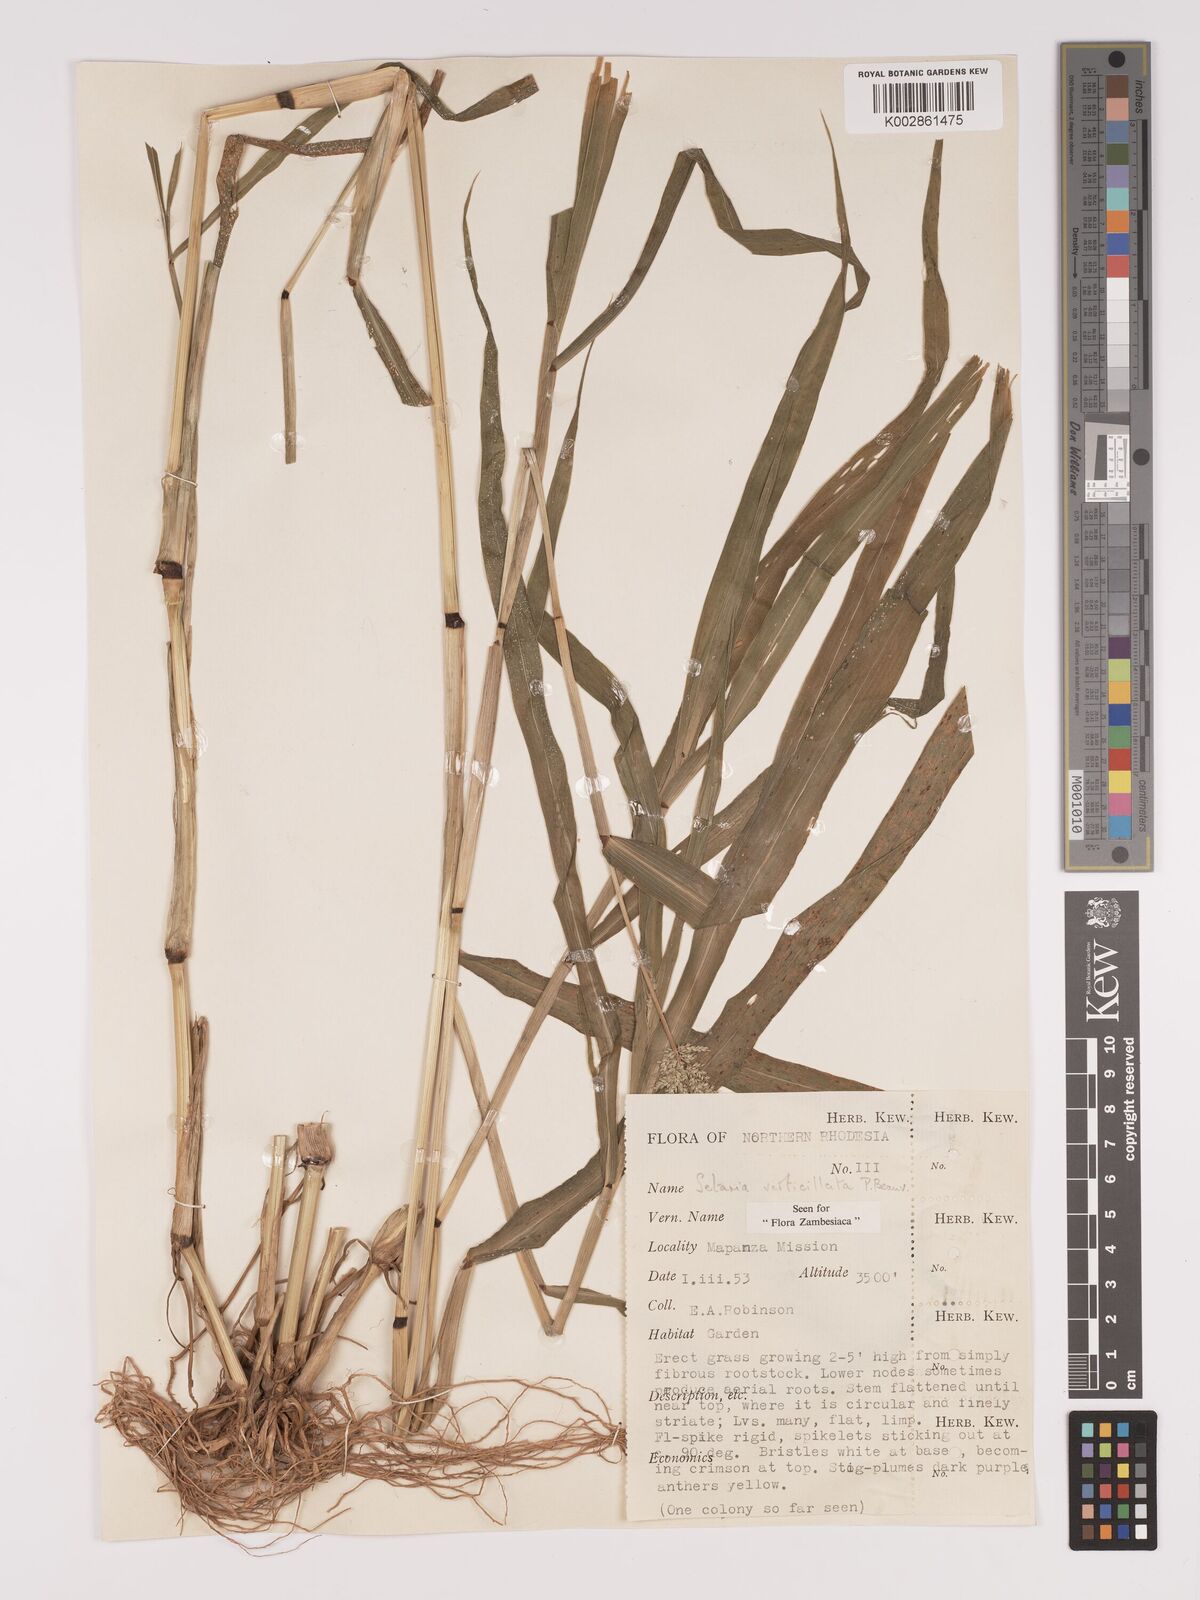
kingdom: Plantae
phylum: Tracheophyta
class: Liliopsida
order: Poales
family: Poaceae
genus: Setaria
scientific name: Setaria verticillata
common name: Hooked bristlegrass
